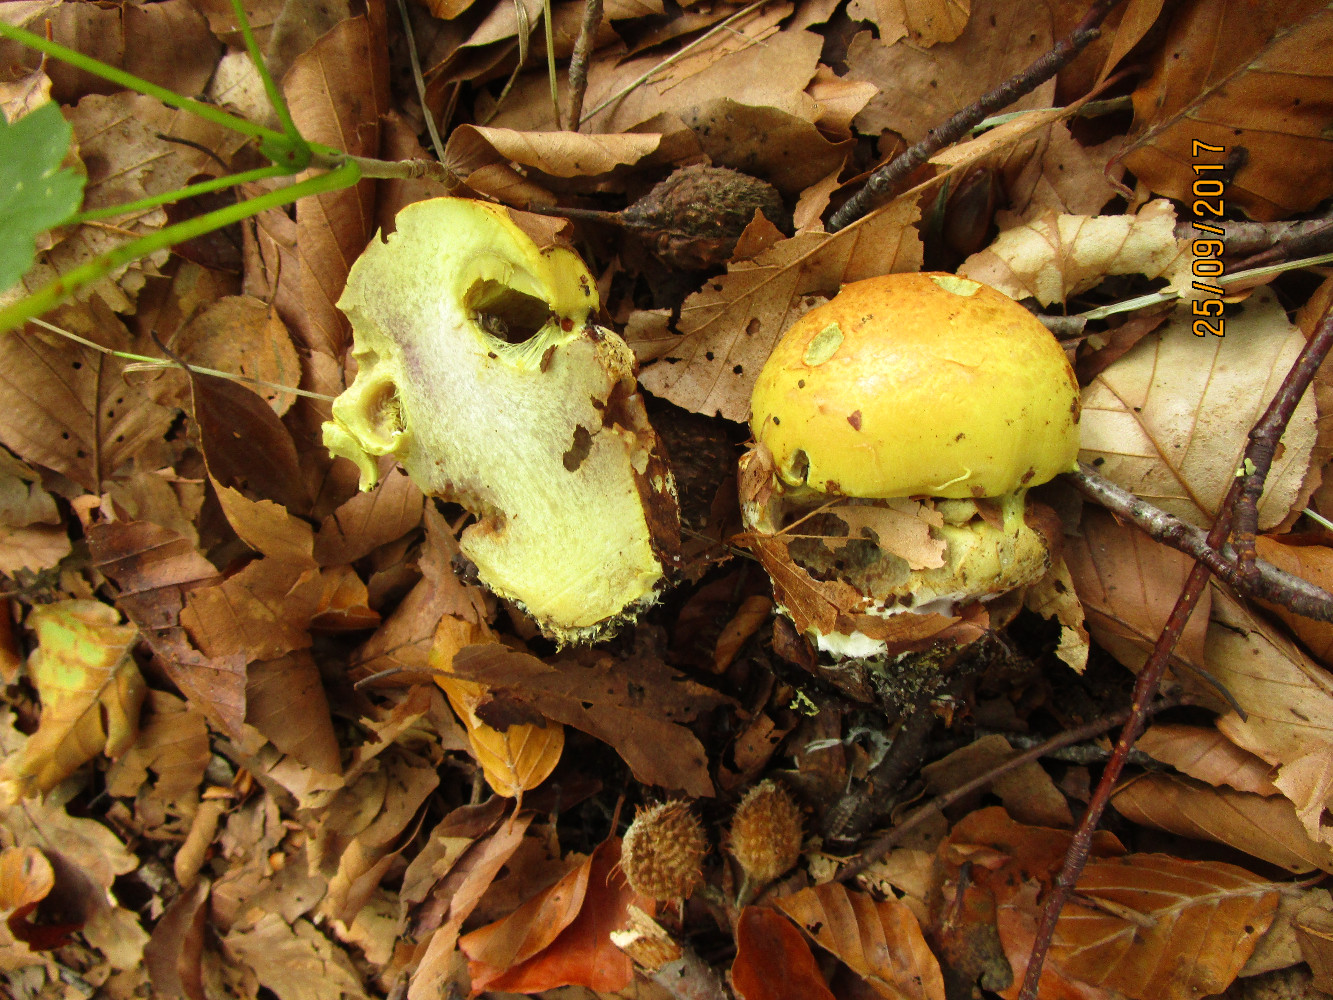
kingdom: Fungi
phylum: Basidiomycota
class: Agaricomycetes
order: Agaricales
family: Cortinariaceae
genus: Calonarius
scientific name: Calonarius elegantissimus
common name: orangegylden slørhat
